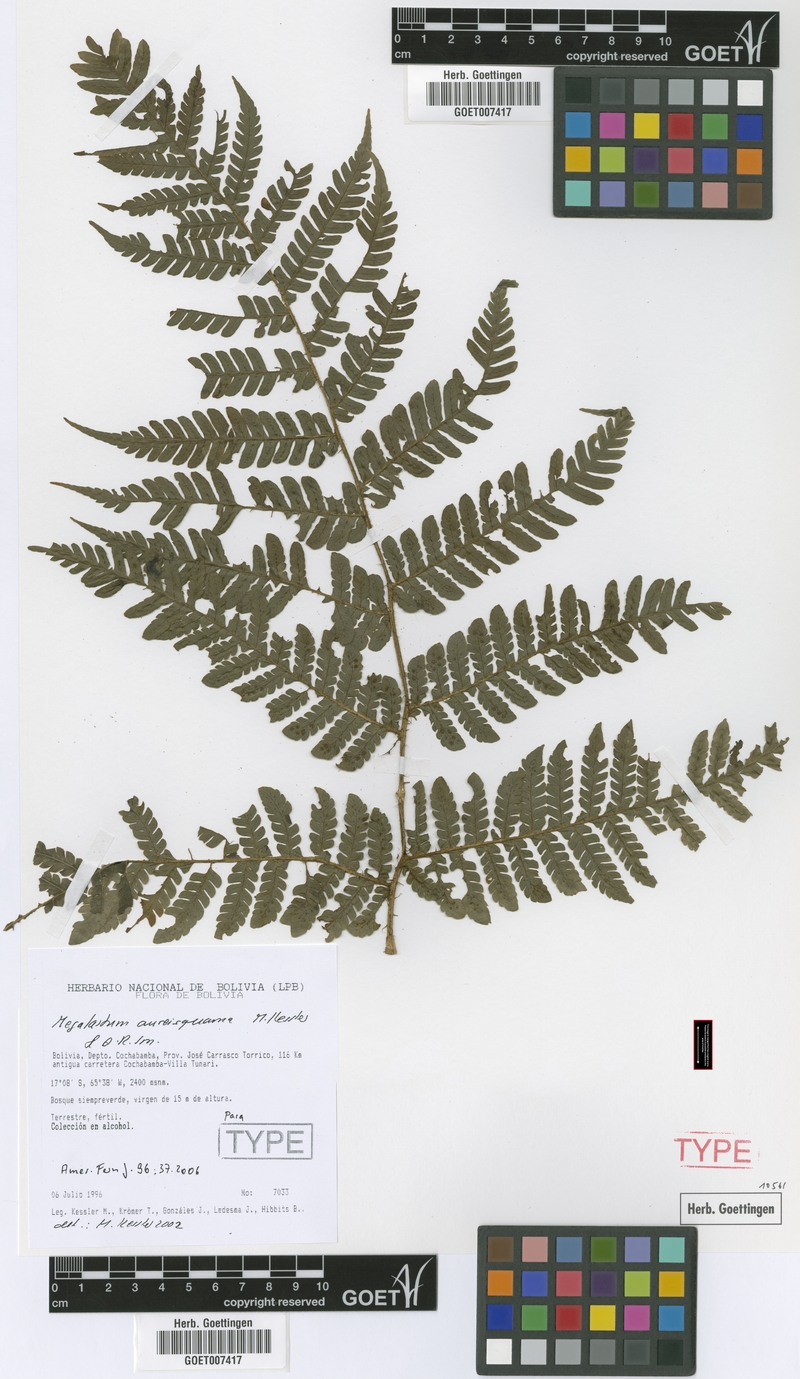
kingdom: Plantae
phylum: Tracheophyta
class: Polypodiopsida
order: Polypodiales
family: Dryopteridaceae
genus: Megalastrum
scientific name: Megalastrum aureisquama
